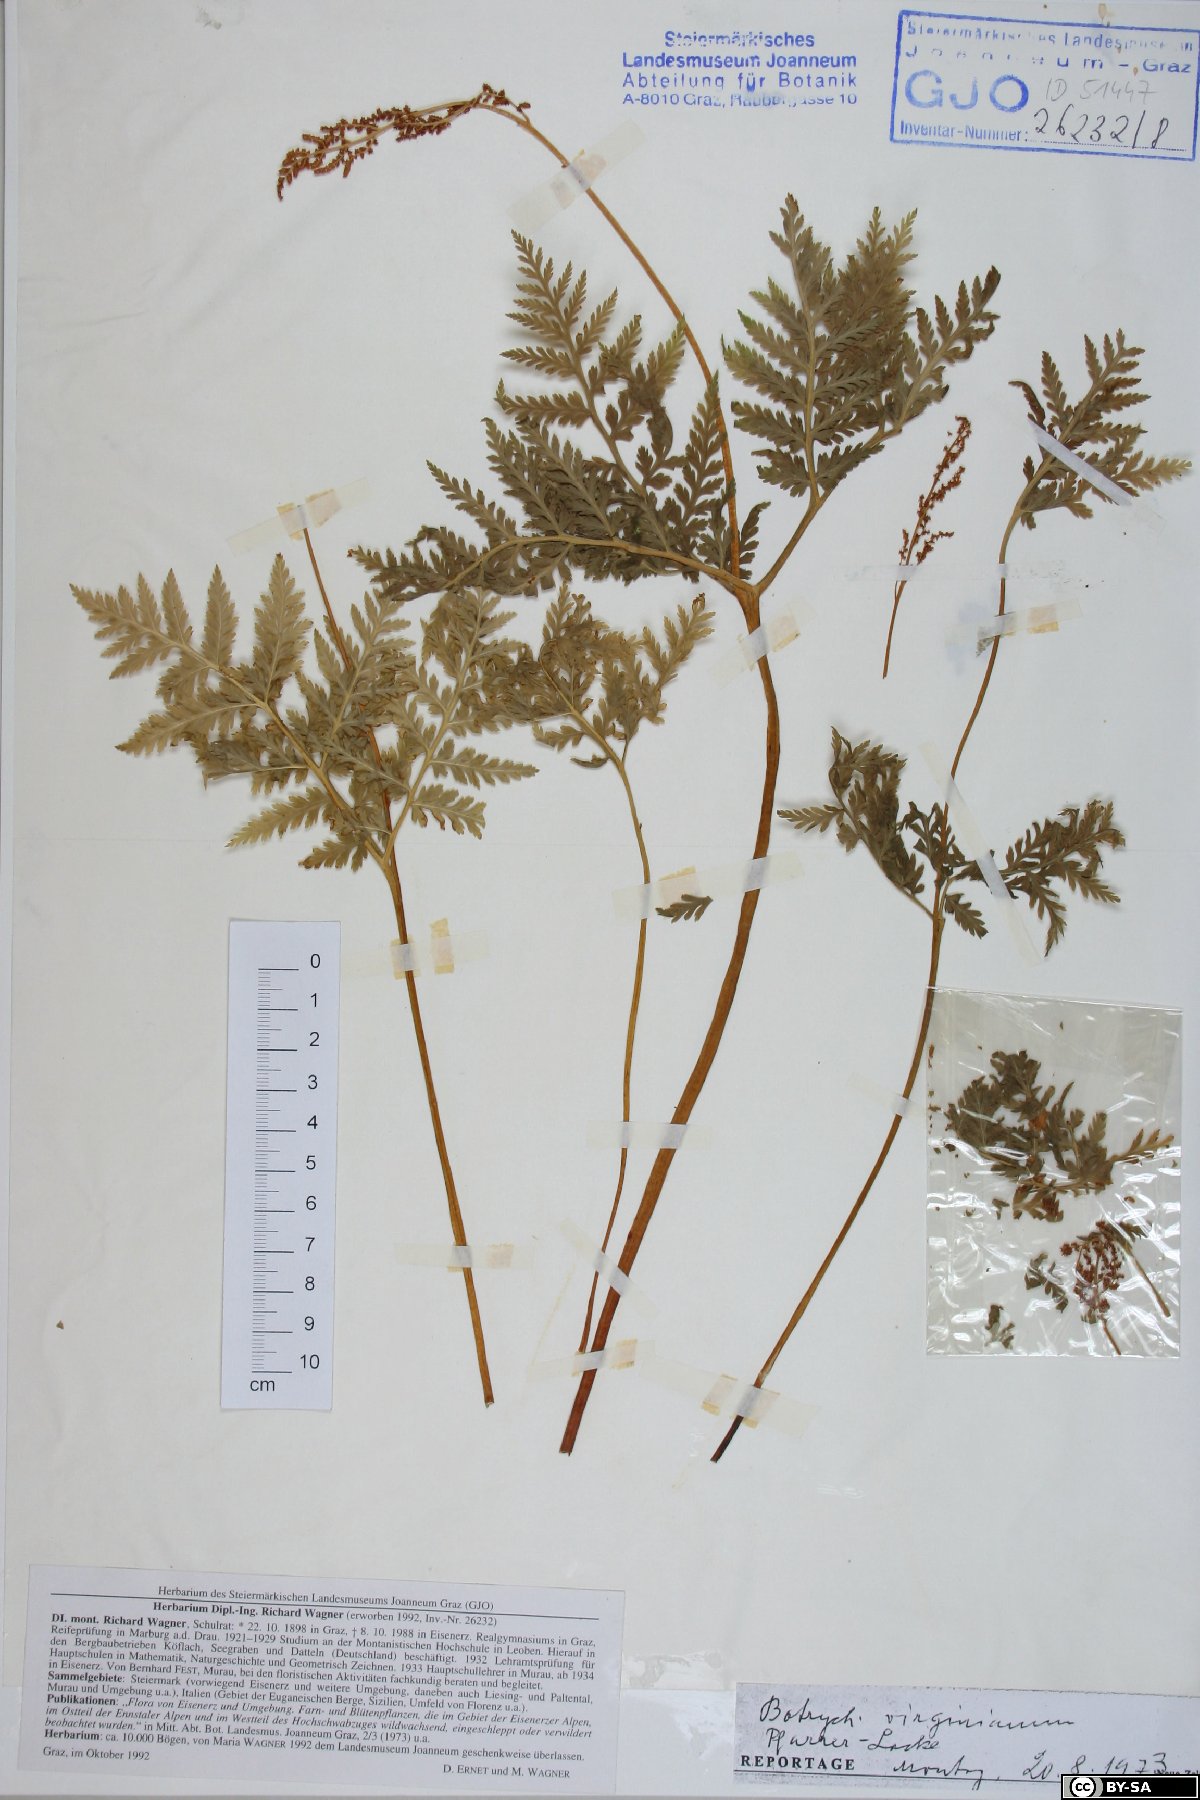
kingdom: Plantae
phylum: Tracheophyta
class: Polypodiopsida
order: Ophioglossales
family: Ophioglossaceae
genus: Botrypus
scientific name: Botrypus virginianus
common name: Common grapefern
